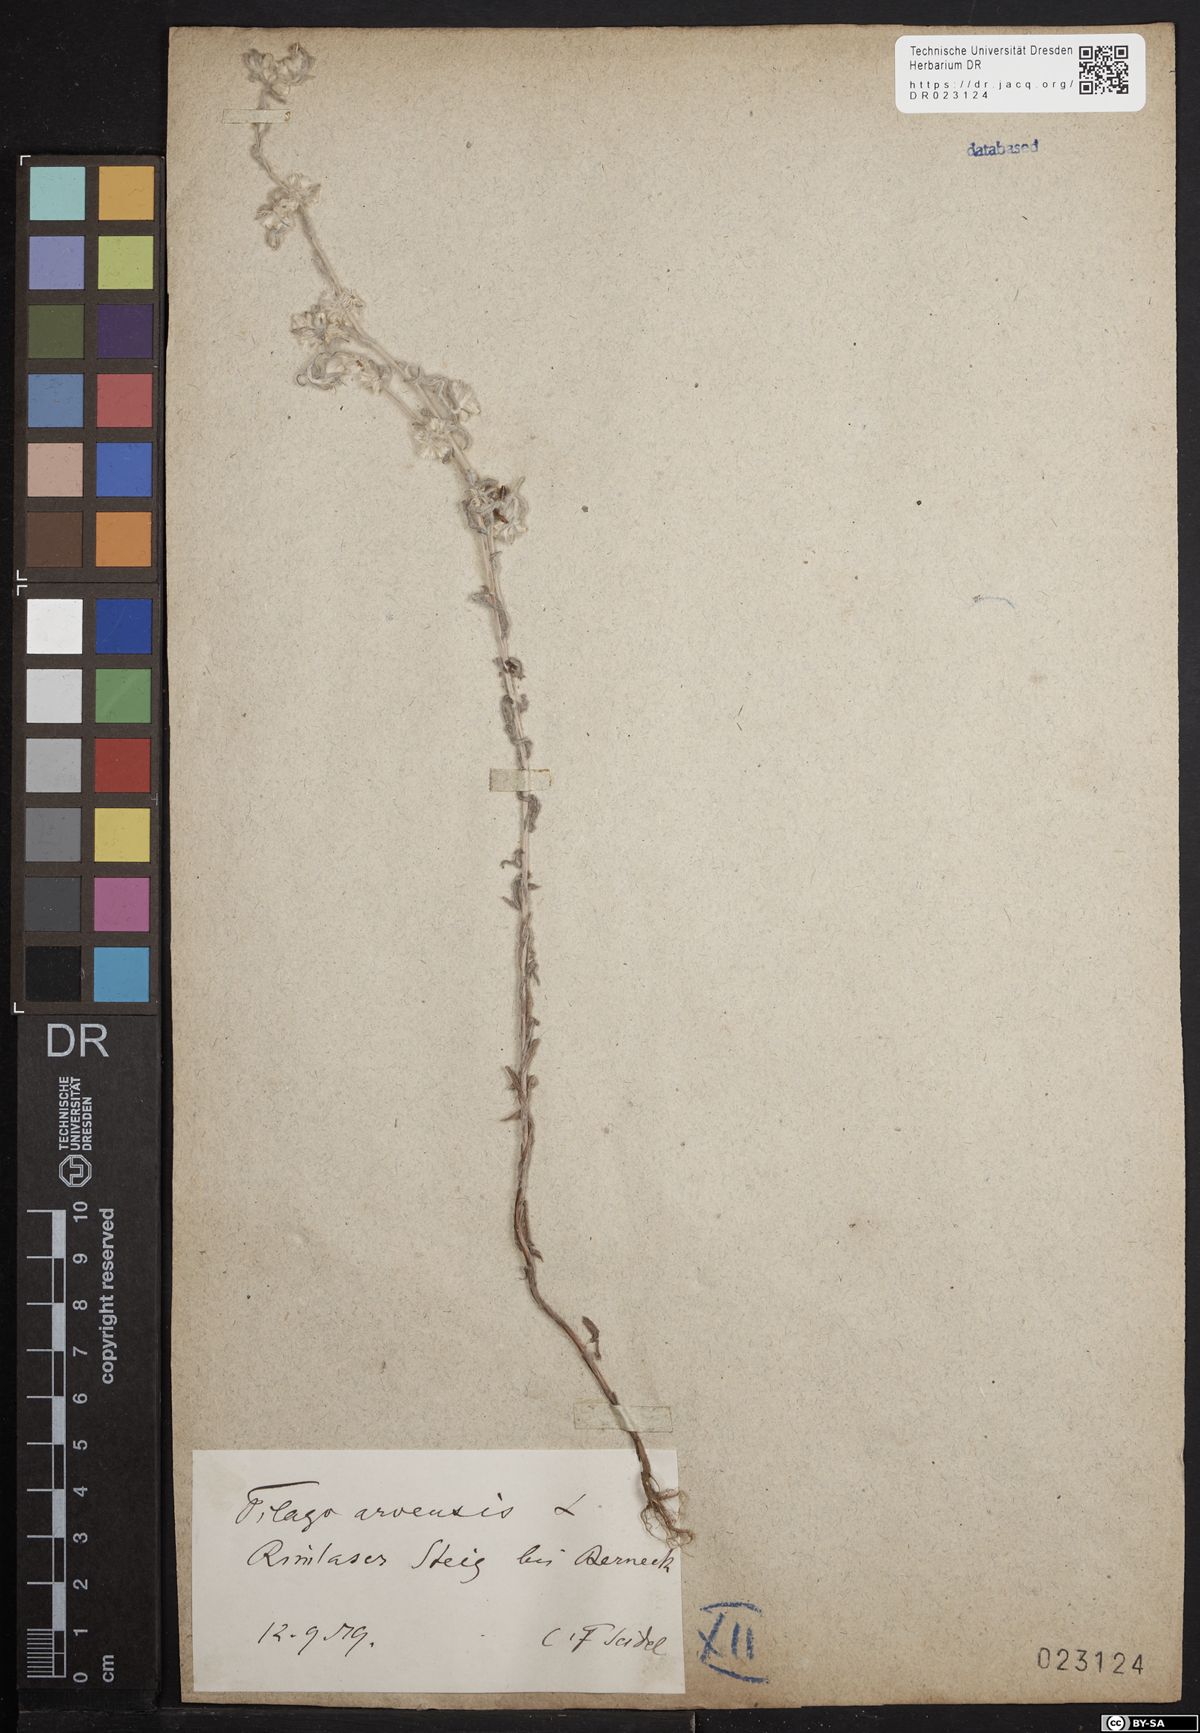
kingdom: Plantae
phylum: Tracheophyta
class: Magnoliopsida
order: Asterales
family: Asteraceae
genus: Filago
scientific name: Filago arvensis
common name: Field cudweed
